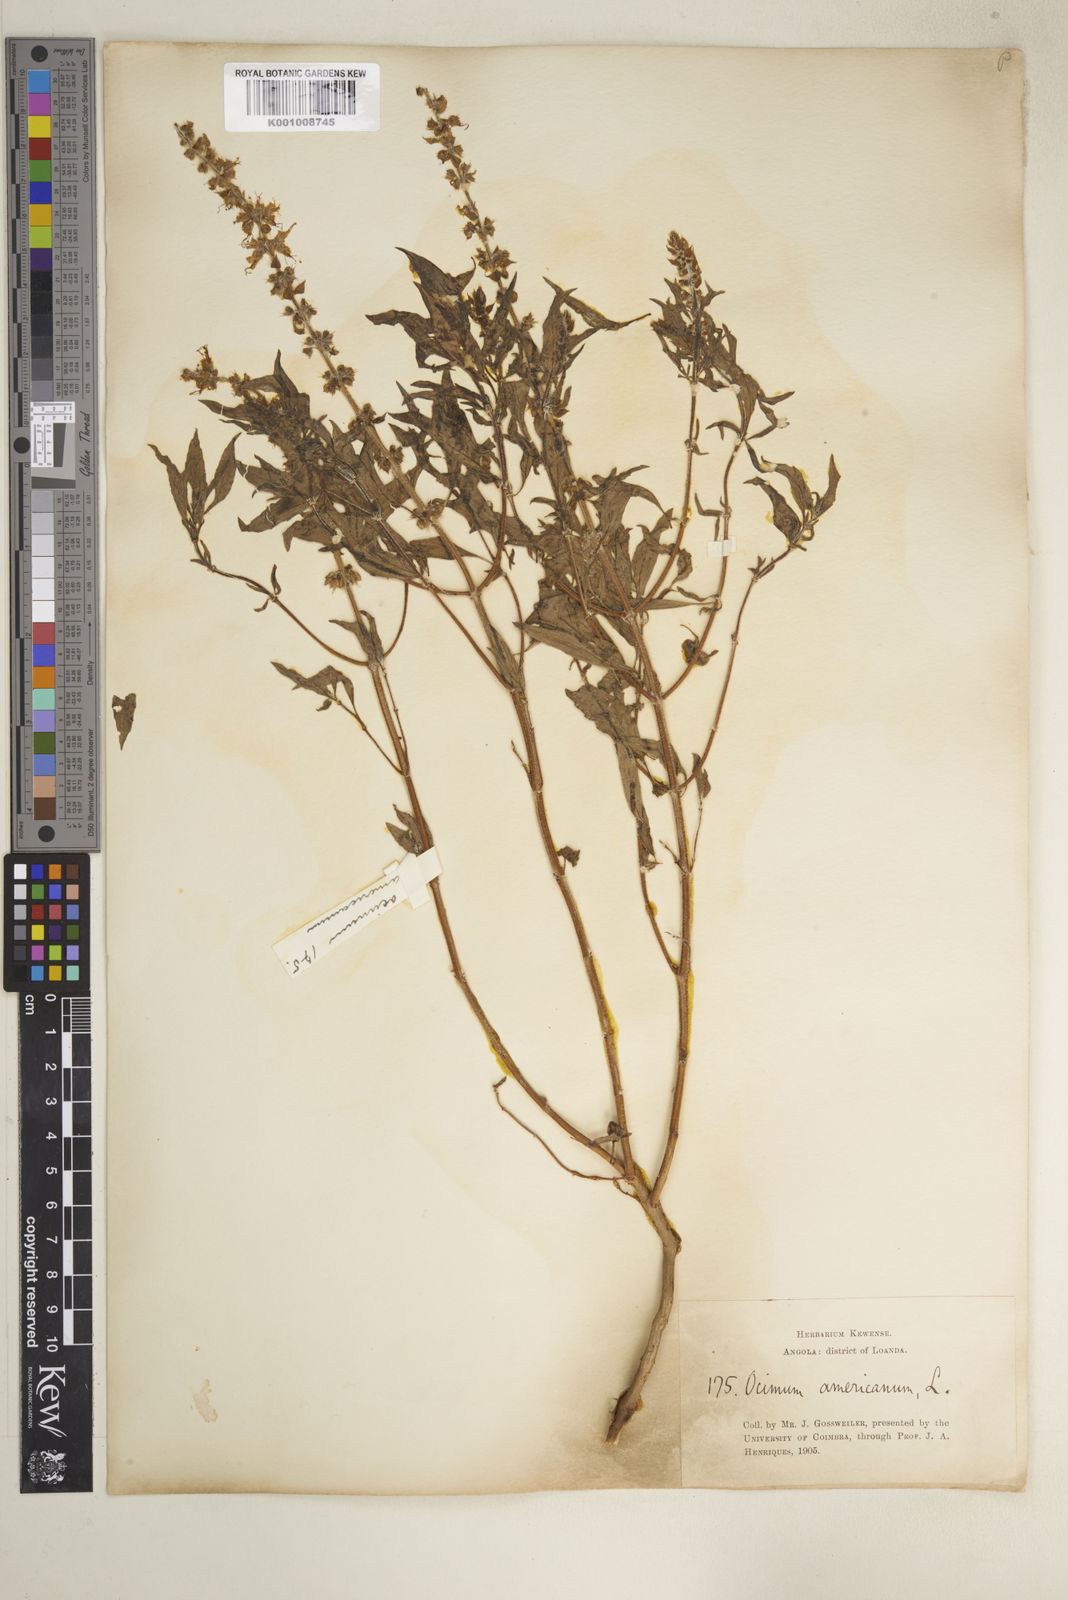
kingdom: Plantae
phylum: Tracheophyta
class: Magnoliopsida
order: Lamiales
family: Lamiaceae
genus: Ocimum
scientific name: Ocimum americanum
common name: American basil
